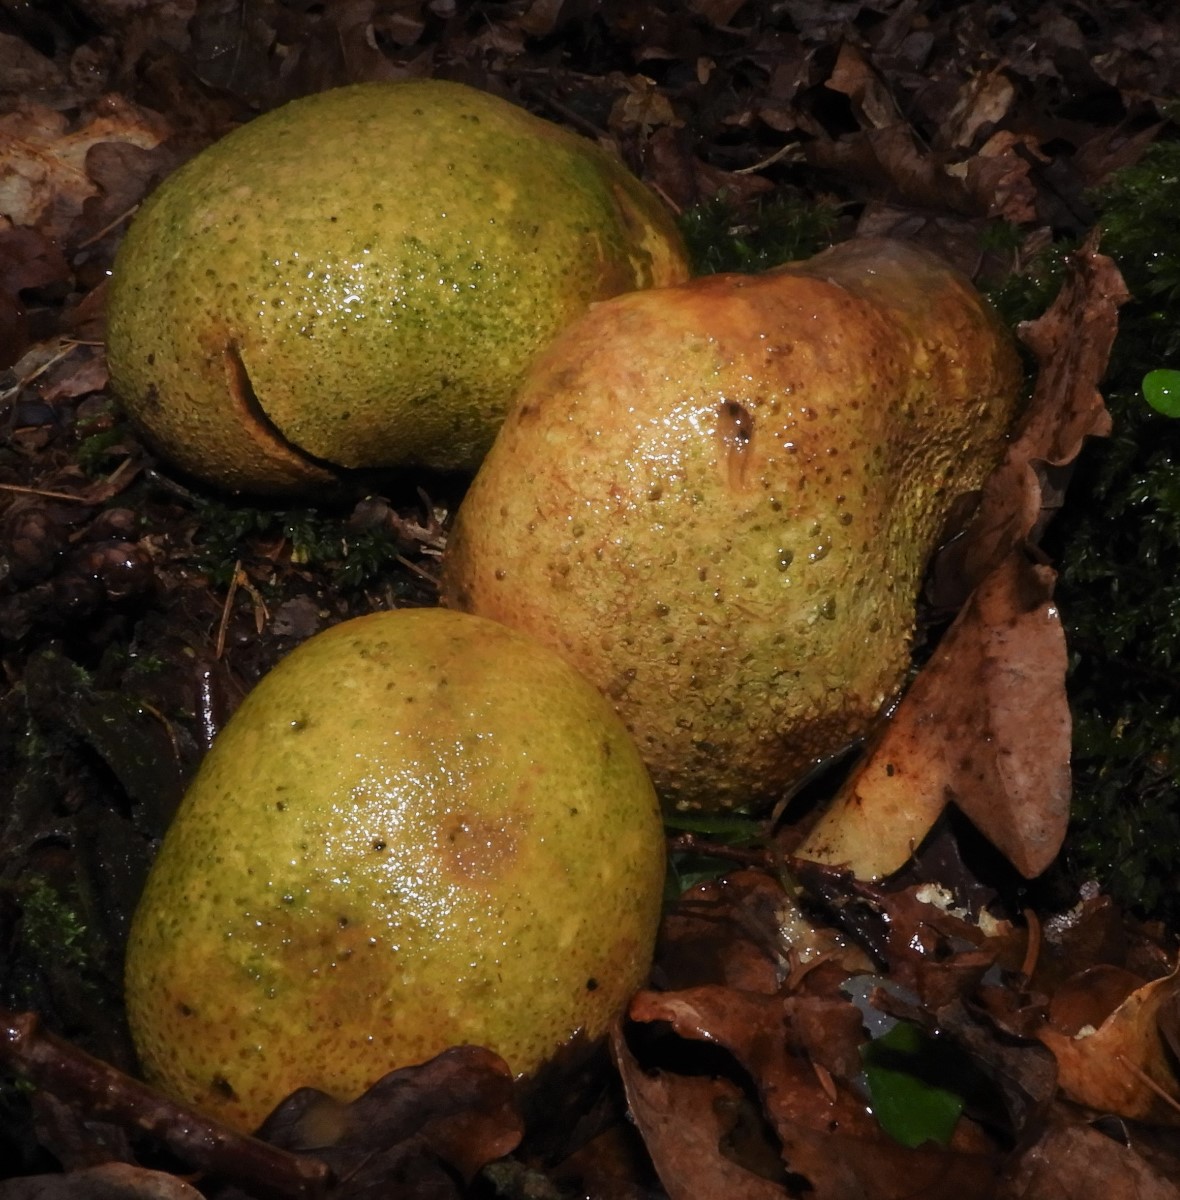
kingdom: Fungi
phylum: Basidiomycota
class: Agaricomycetes
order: Boletales
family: Sclerodermataceae
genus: Scleroderma
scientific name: Scleroderma citrinum
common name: almindelig bruskbold
